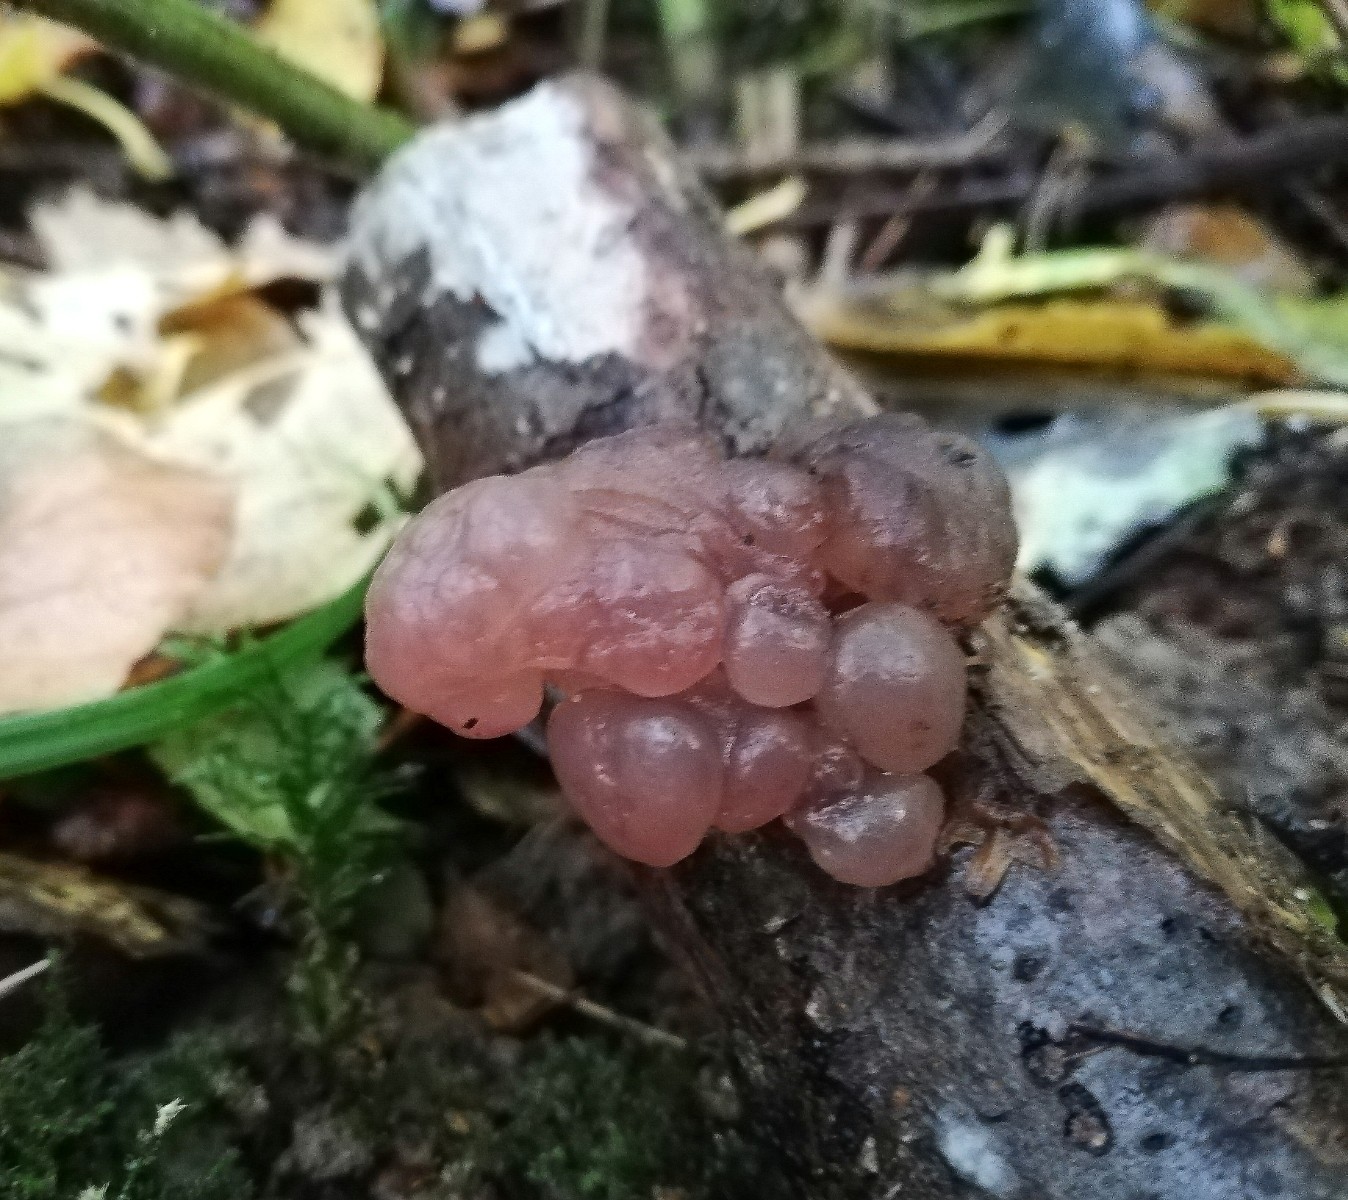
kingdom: Fungi
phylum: Ascomycota
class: Leotiomycetes
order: Helotiales
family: Gelatinodiscaceae
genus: Ascotremella
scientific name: Ascotremella faginea
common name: hjerne-bævreskive
